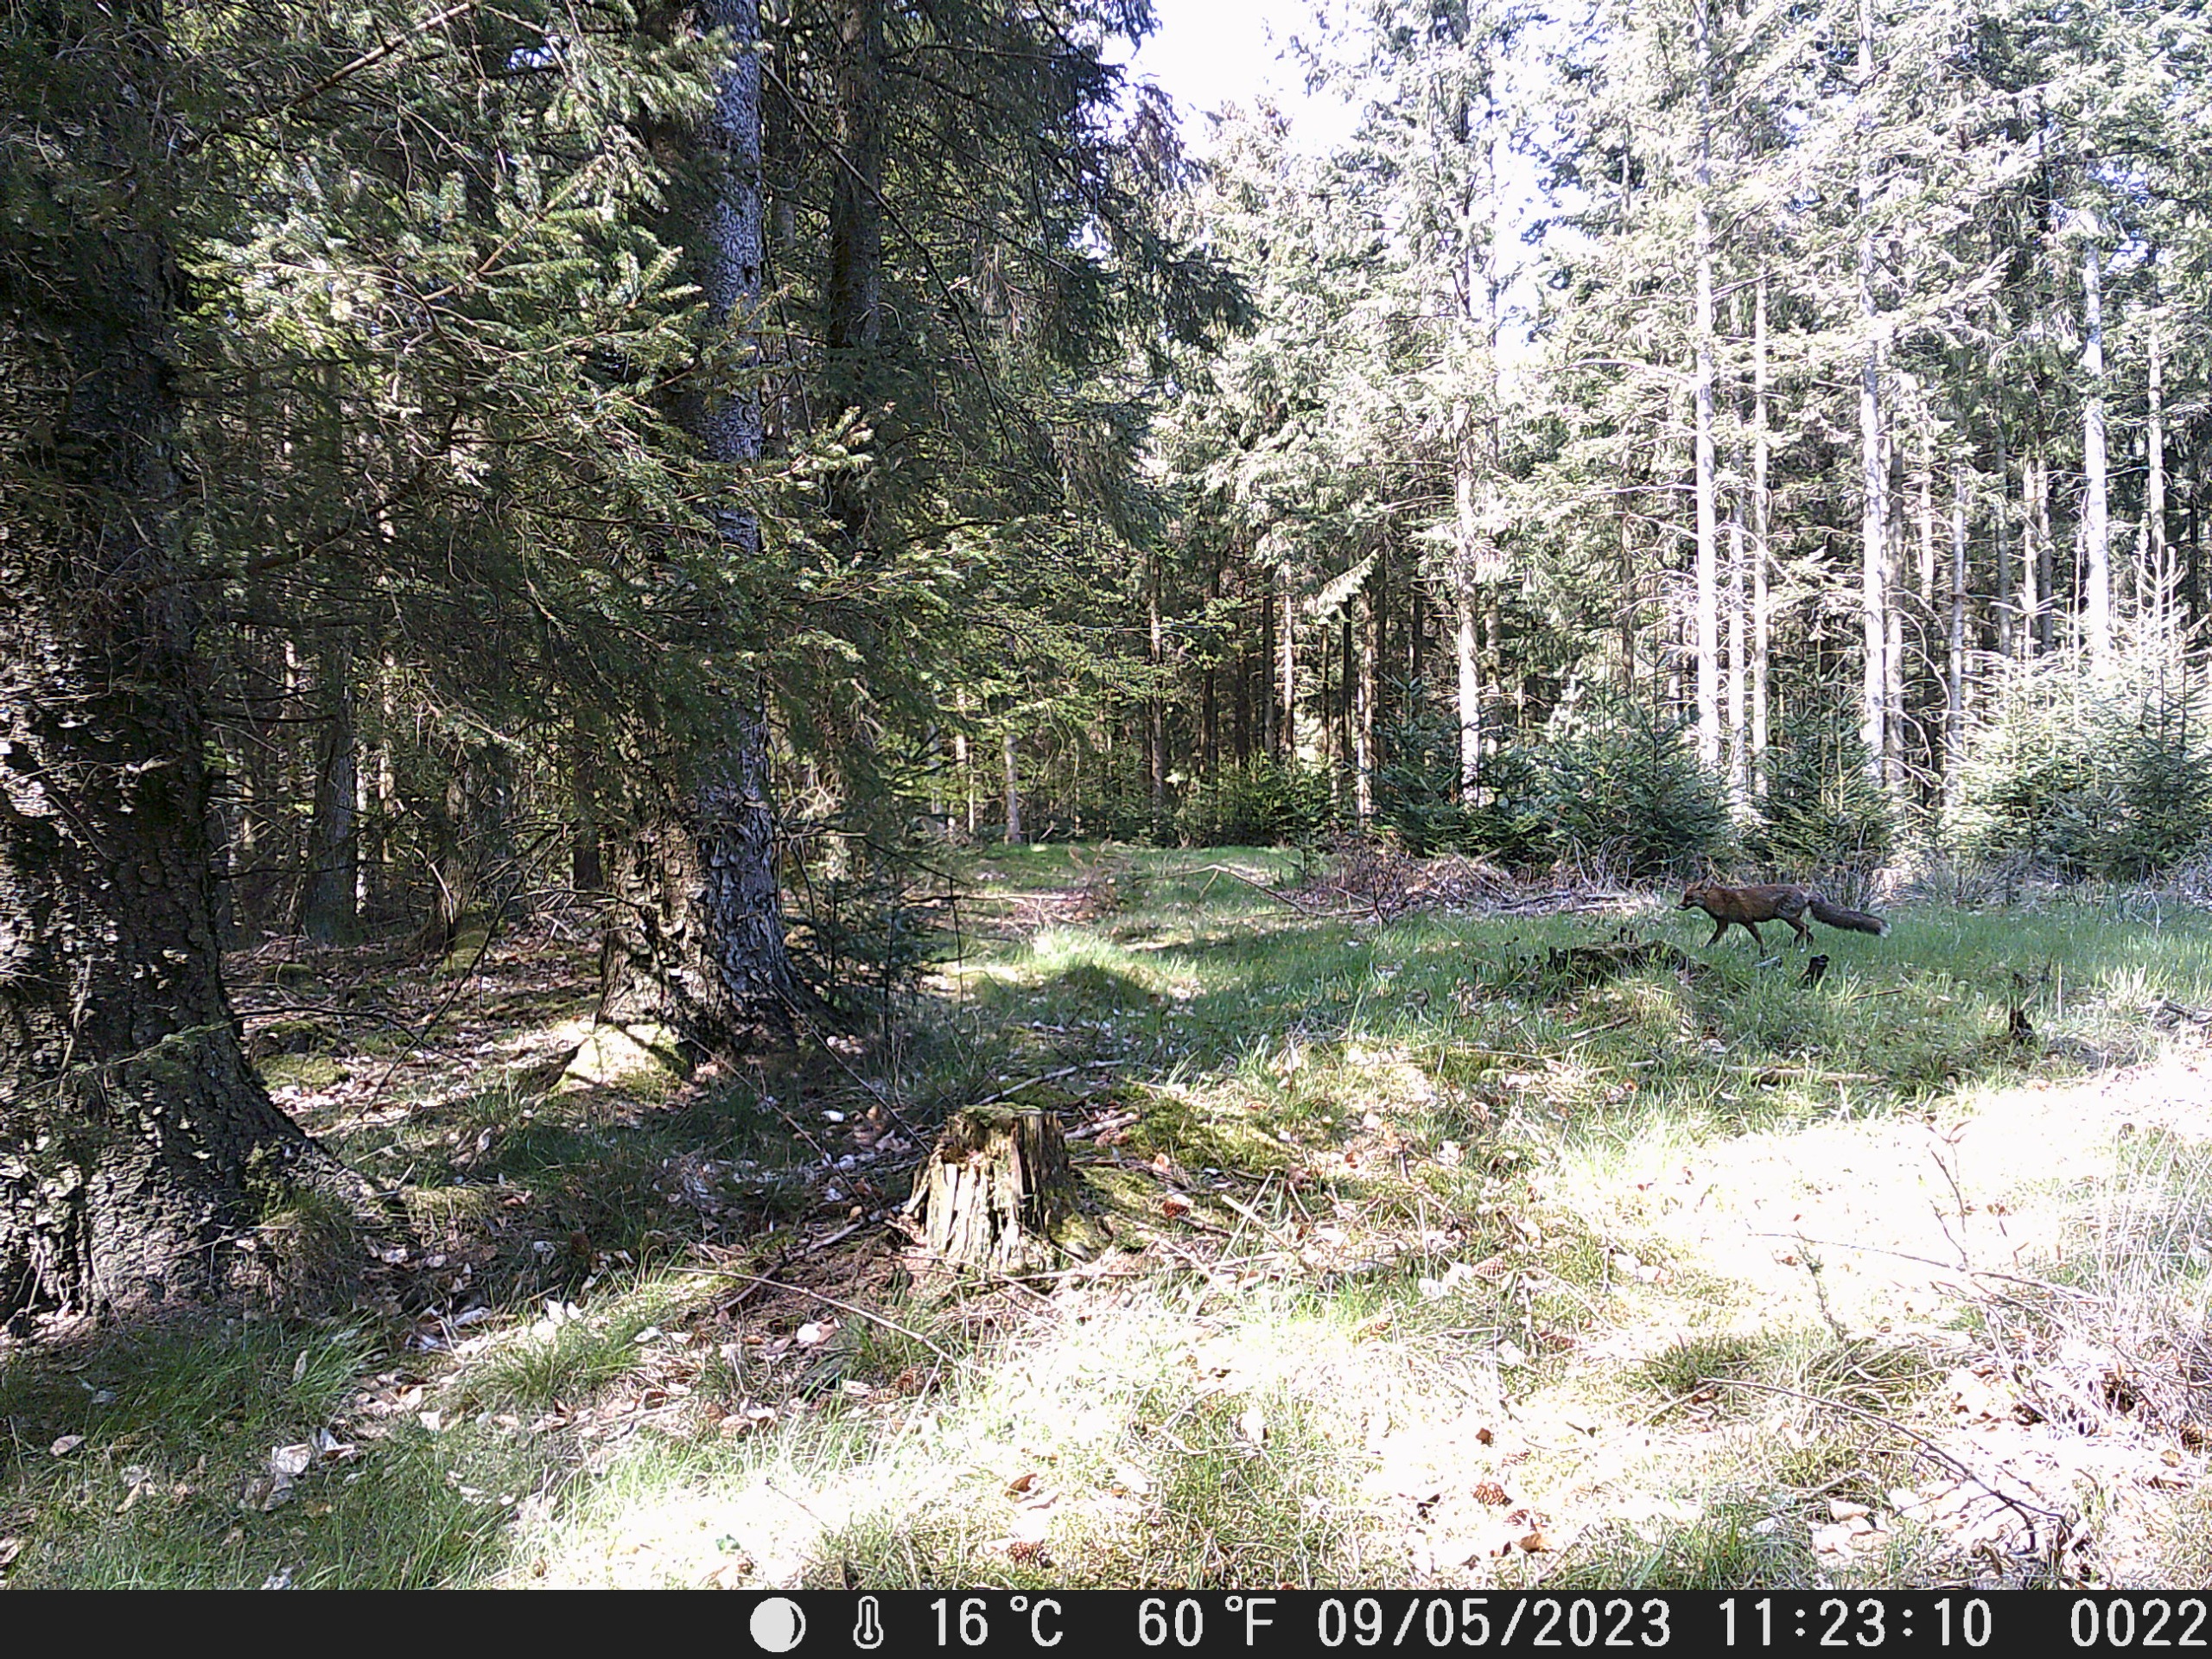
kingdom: Animalia
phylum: Chordata
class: Mammalia
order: Carnivora
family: Canidae
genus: Vulpes
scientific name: Vulpes vulpes
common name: Ræv
